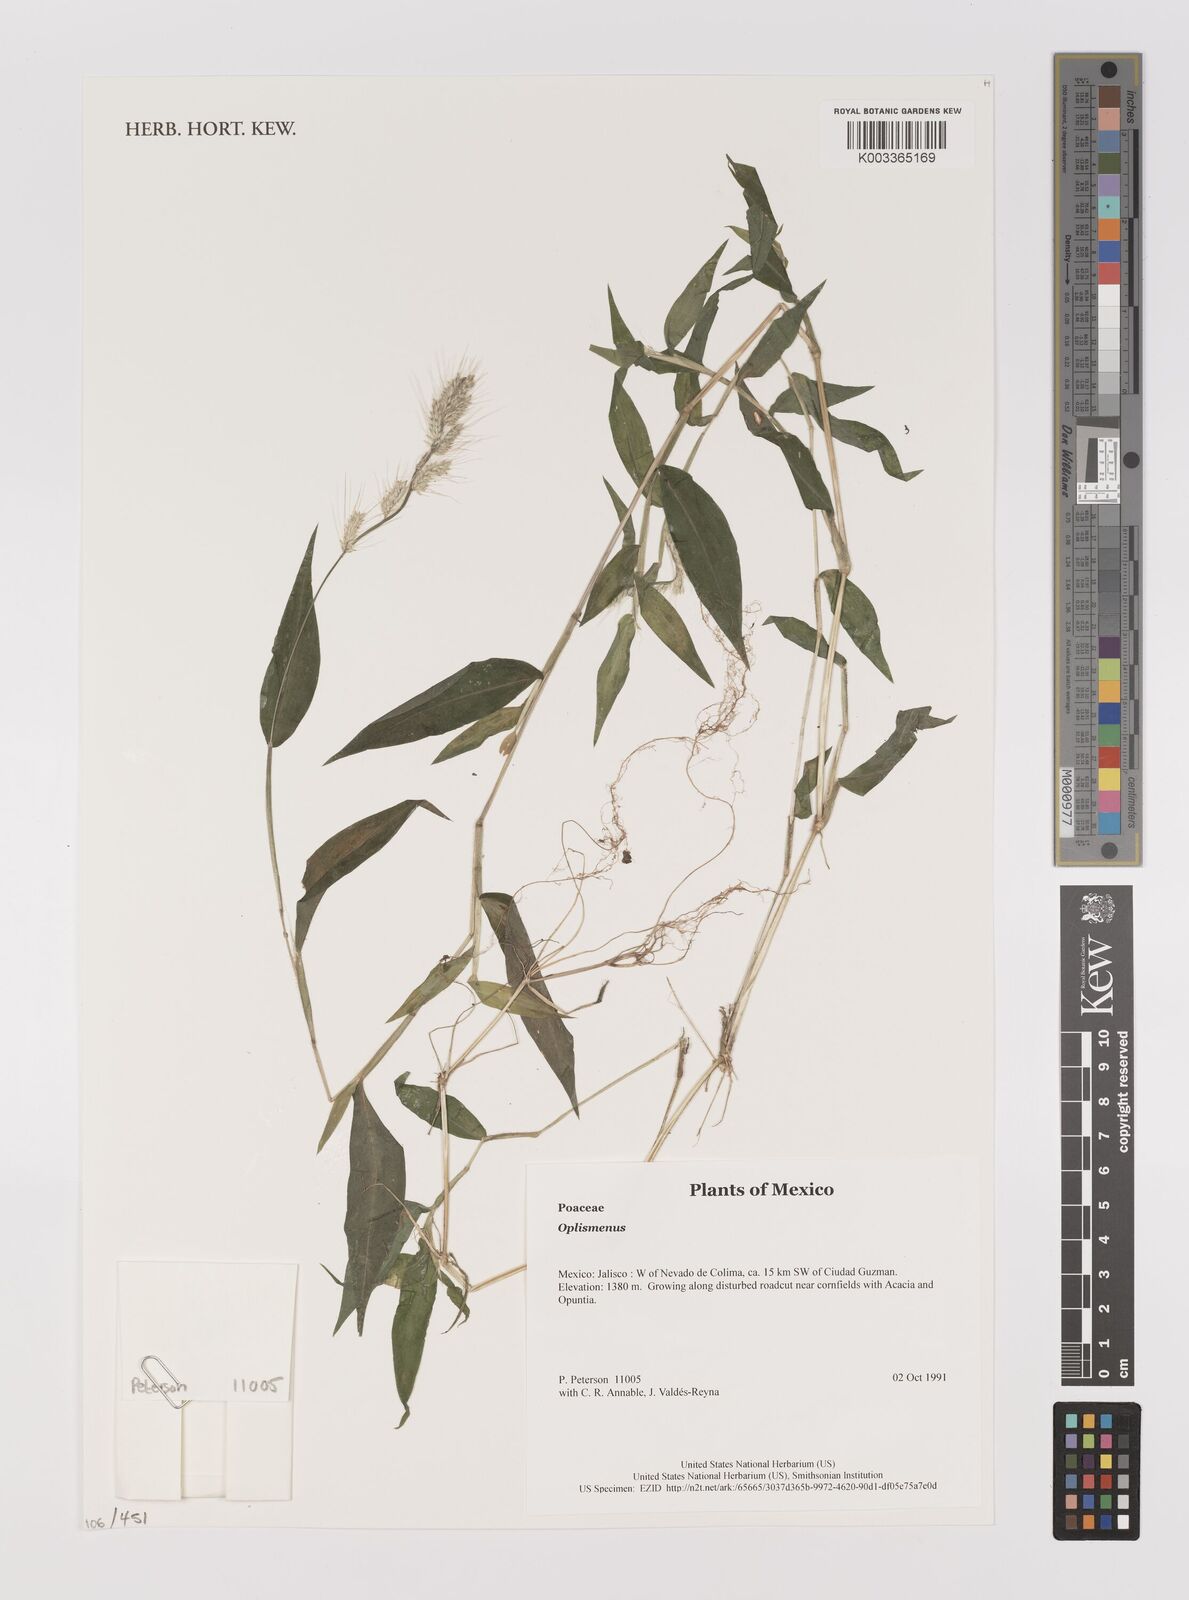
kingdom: Plantae
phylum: Tracheophyta
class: Liliopsida
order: Poales
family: Poaceae
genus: Oplismenus
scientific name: Oplismenus
